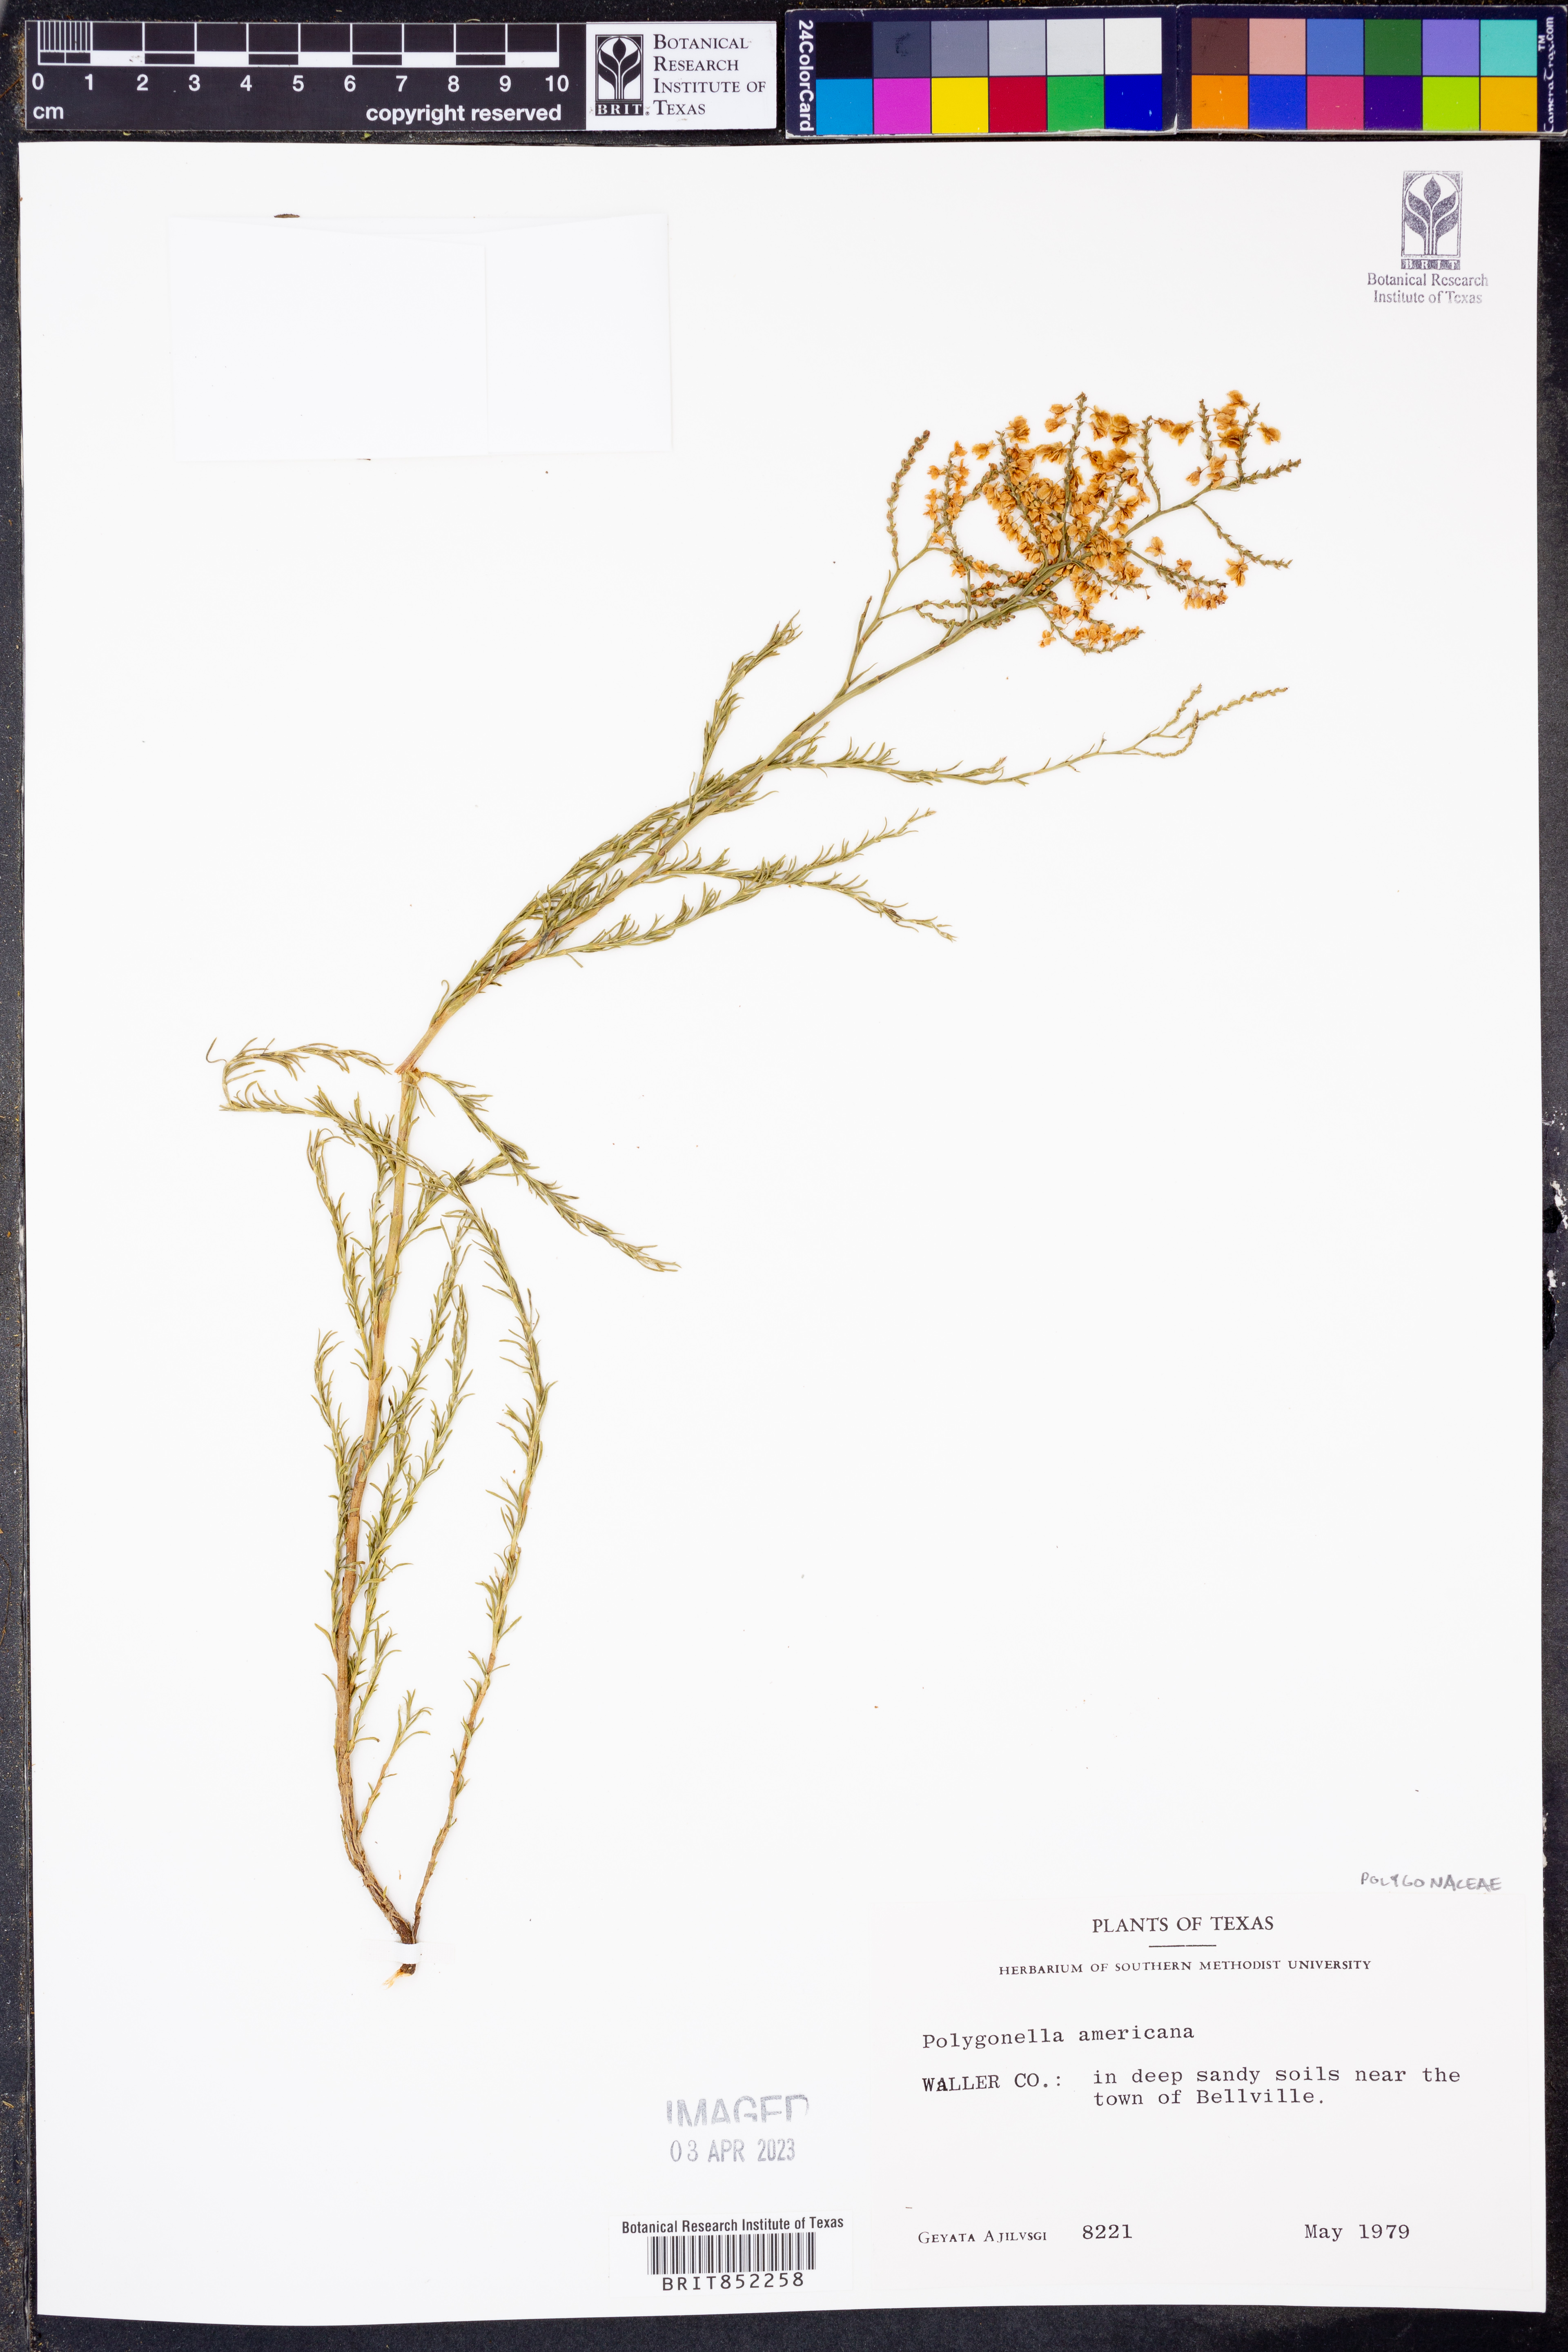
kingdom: Plantae
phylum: Tracheophyta
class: Magnoliopsida
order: Caryophyllales
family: Polygonaceae
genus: Polygonella
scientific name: Polygonella americana
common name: Southern jointweed
